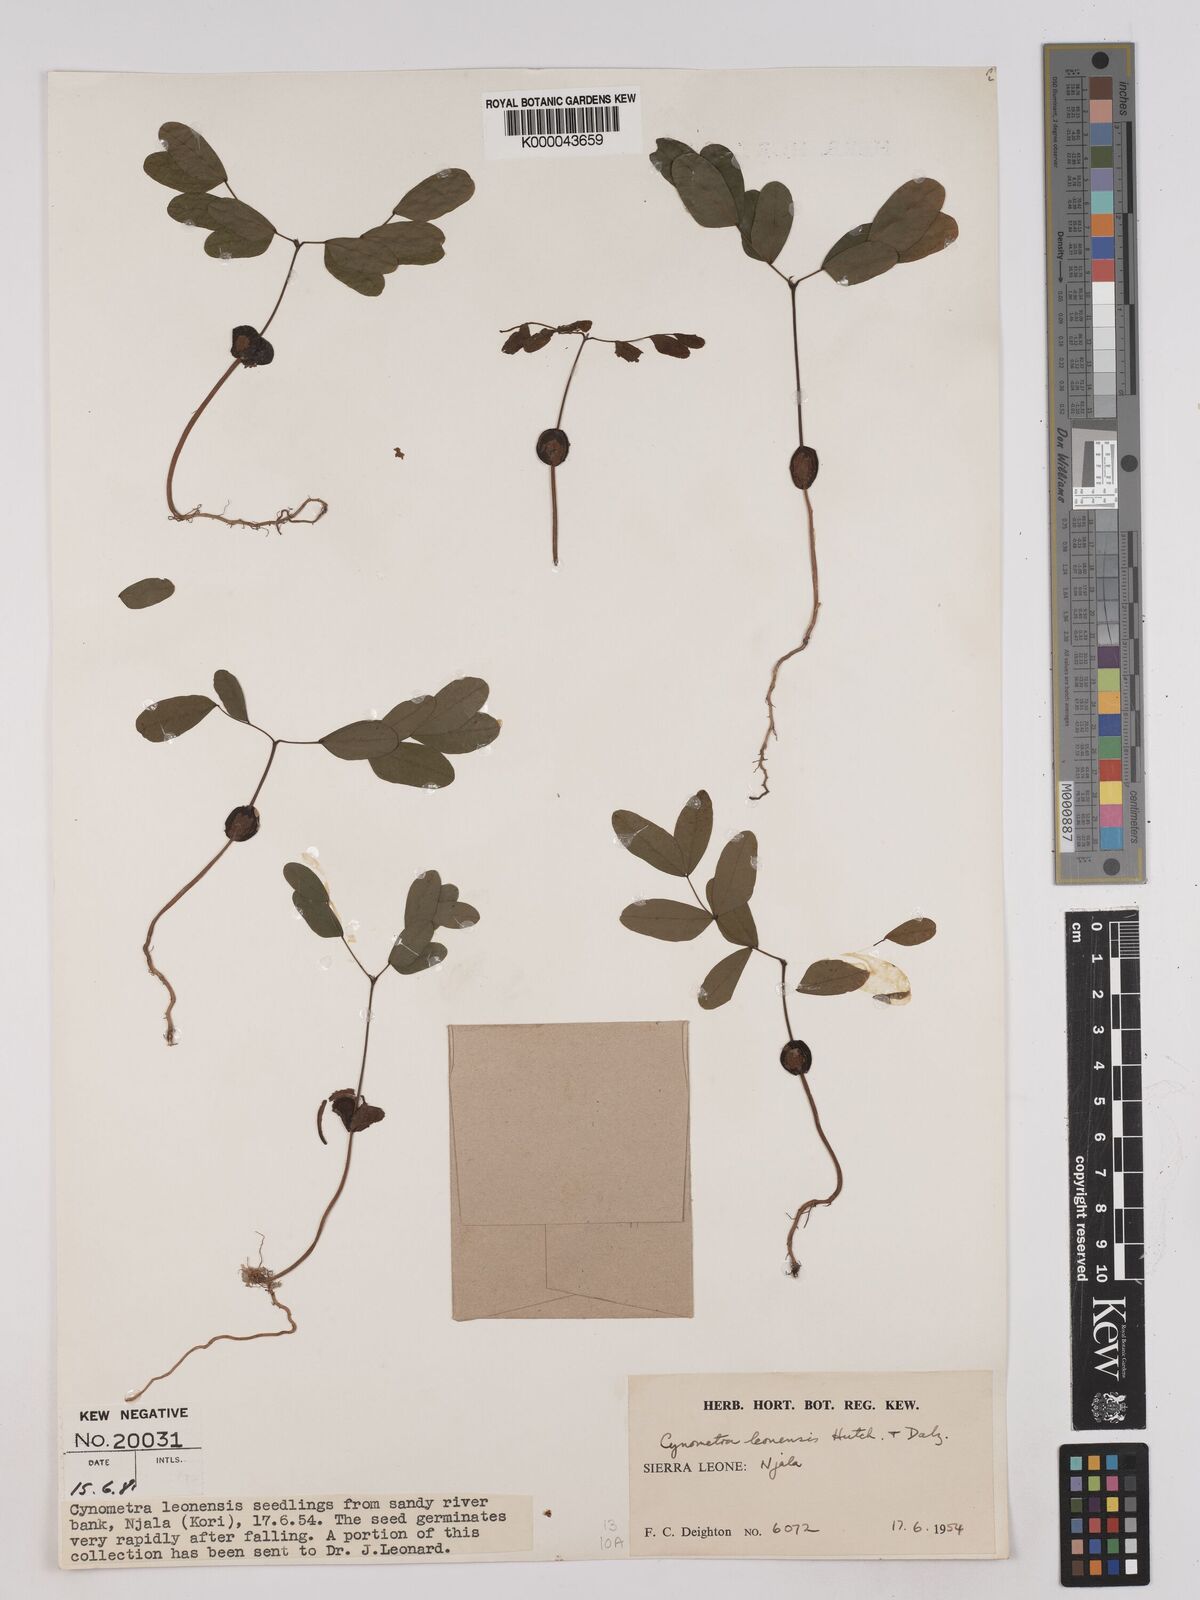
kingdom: Plantae
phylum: Tracheophyta
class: Magnoliopsida
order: Fabales
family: Fabaceae
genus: Cynometra
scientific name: Cynometra leonensis
